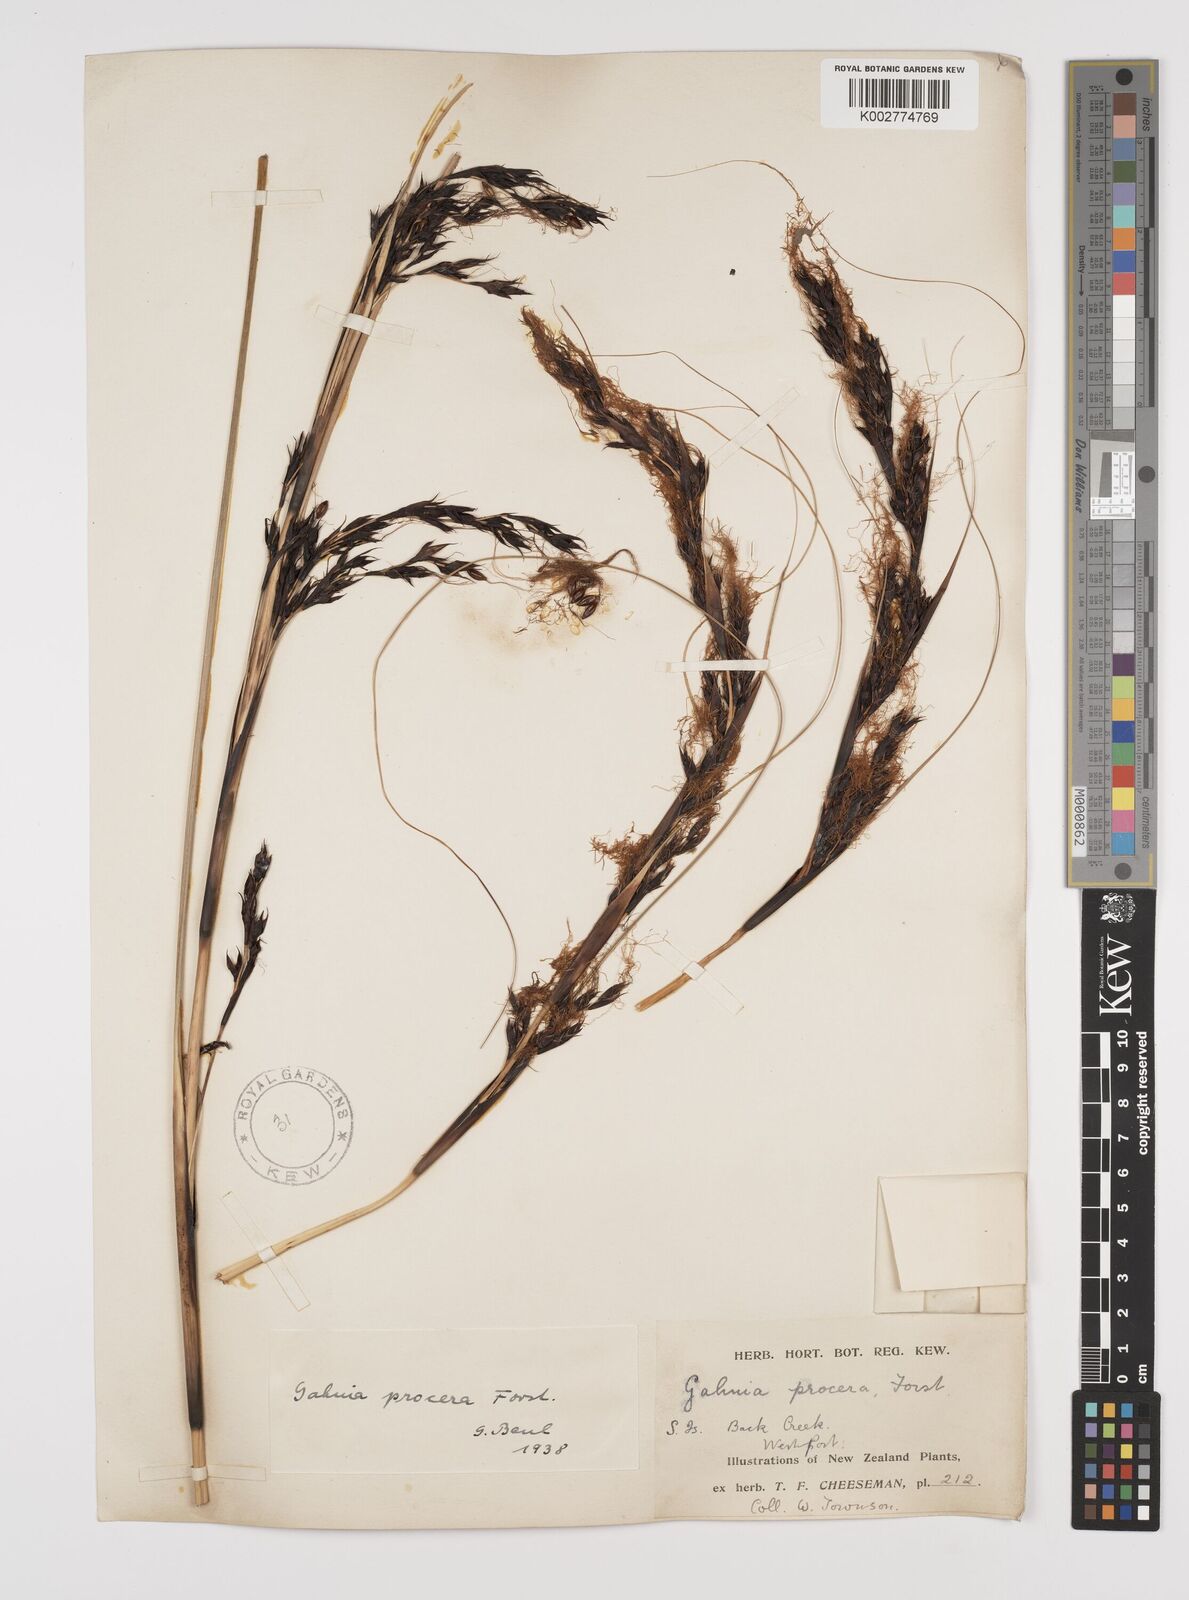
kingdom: Plantae
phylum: Tracheophyta
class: Liliopsida
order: Poales
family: Cyperaceae
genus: Gahnia
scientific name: Gahnia procera
